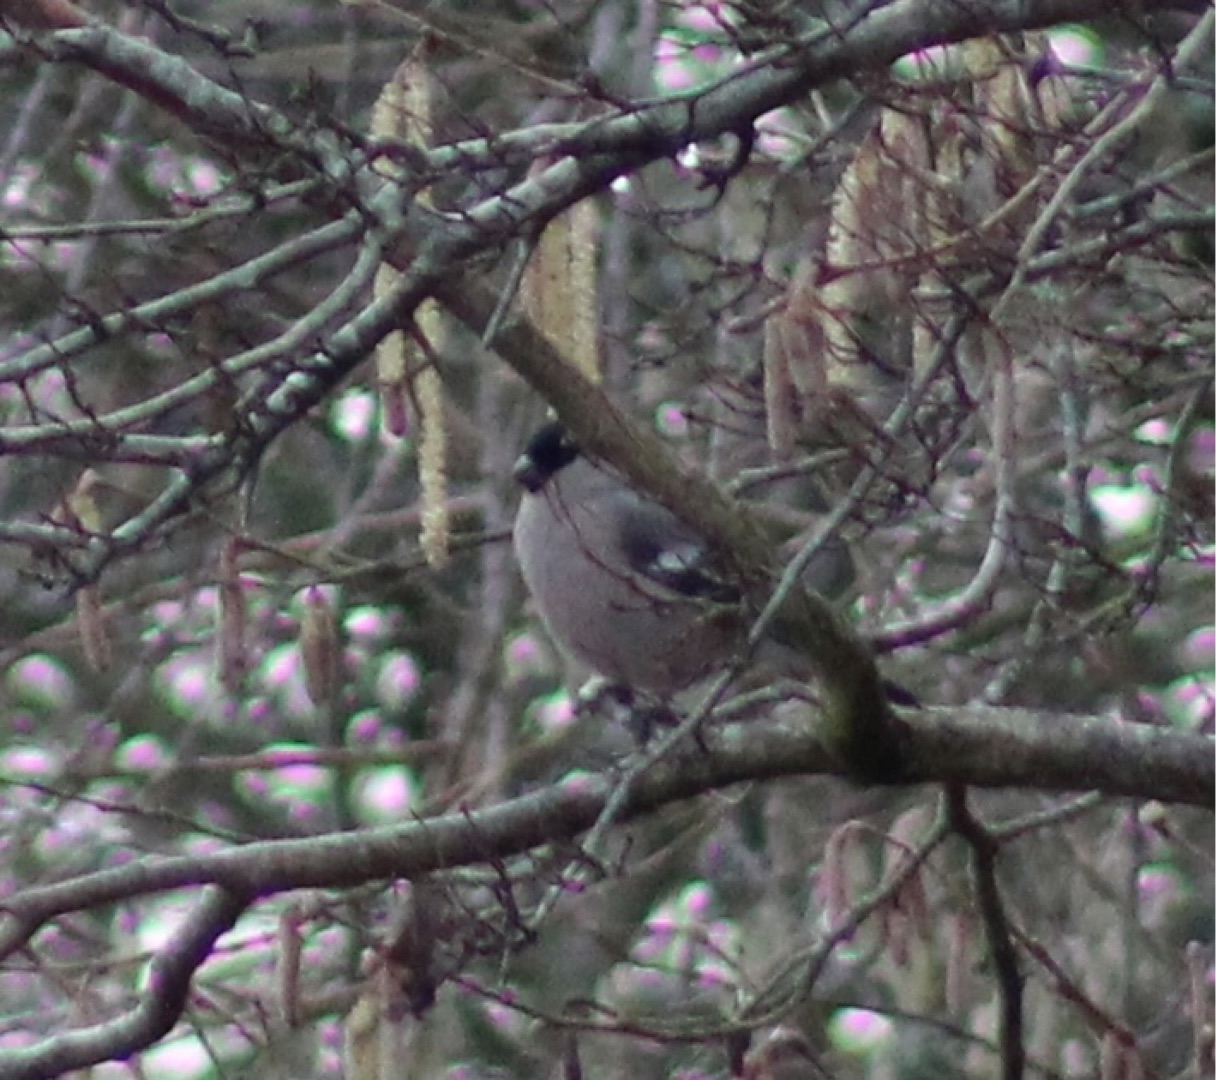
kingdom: Animalia
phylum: Chordata
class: Aves
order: Passeriformes
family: Fringillidae
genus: Pyrrhula
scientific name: Pyrrhula pyrrhula
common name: Dompap
